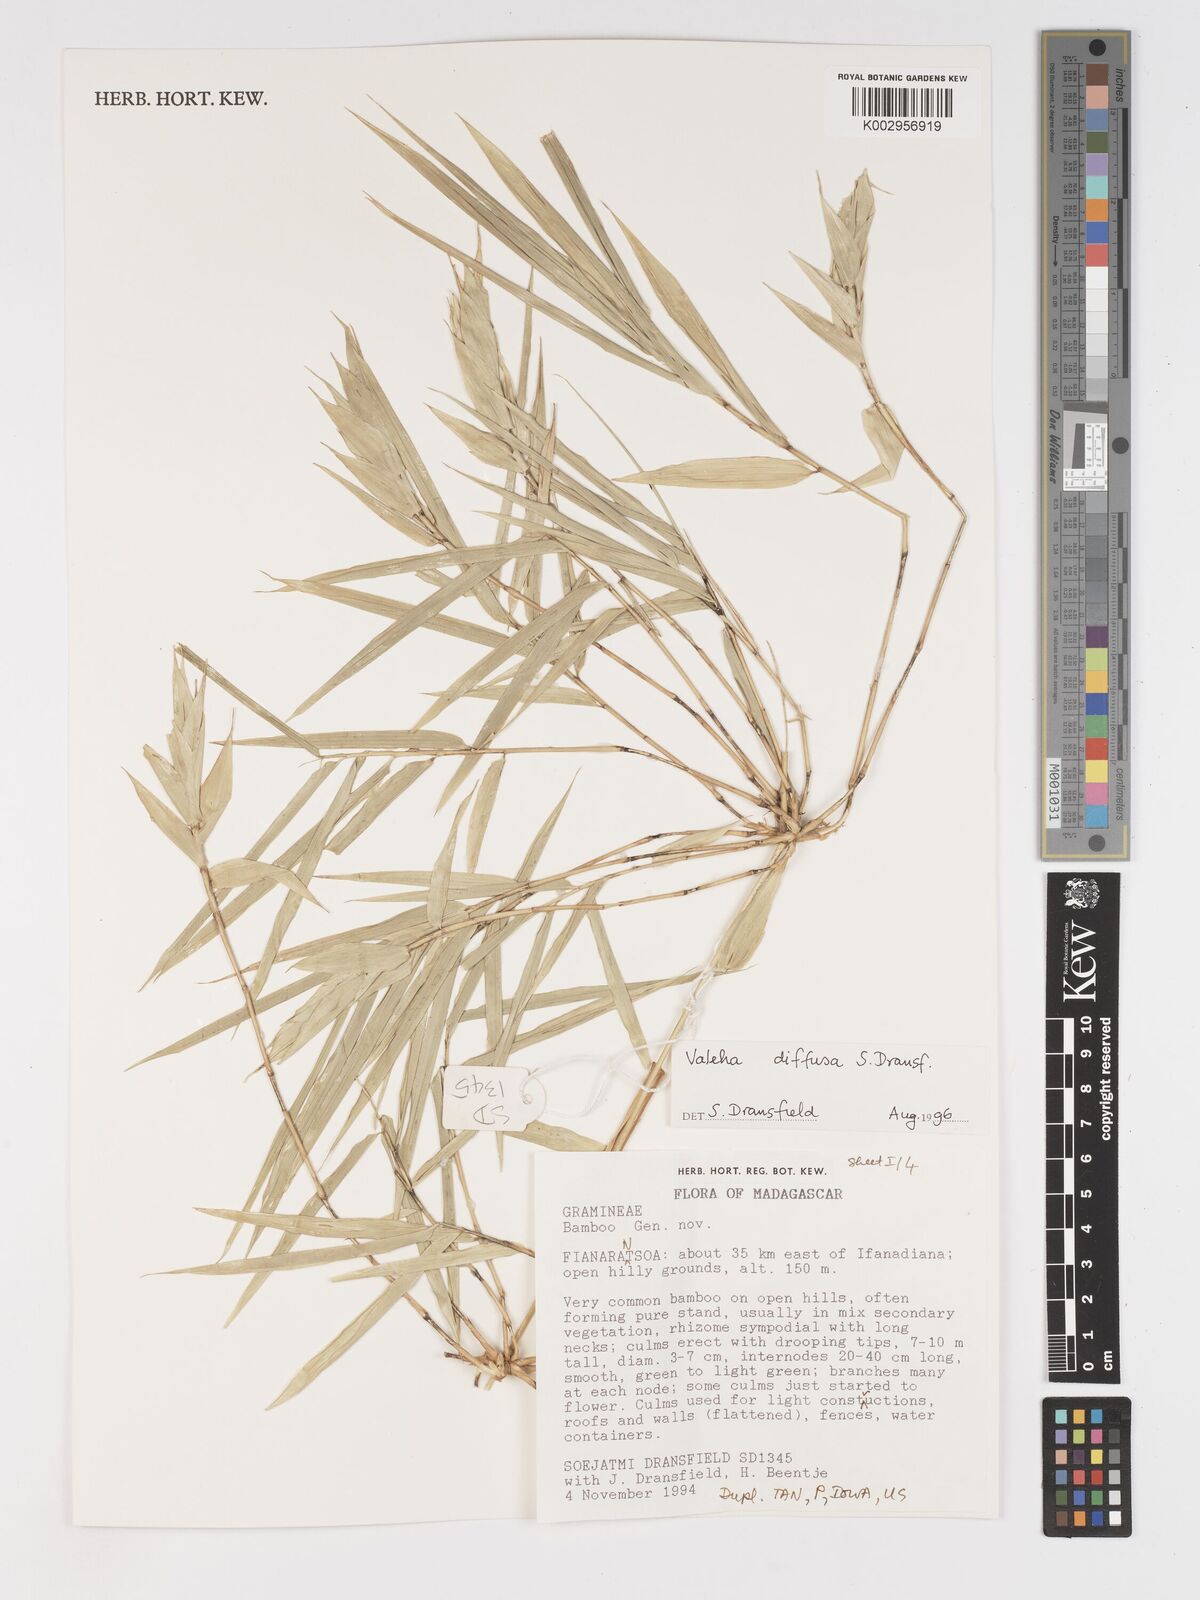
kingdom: Plantae
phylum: Tracheophyta
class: Liliopsida
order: Poales
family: Poaceae
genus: Valiha
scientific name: Valiha diffusa
